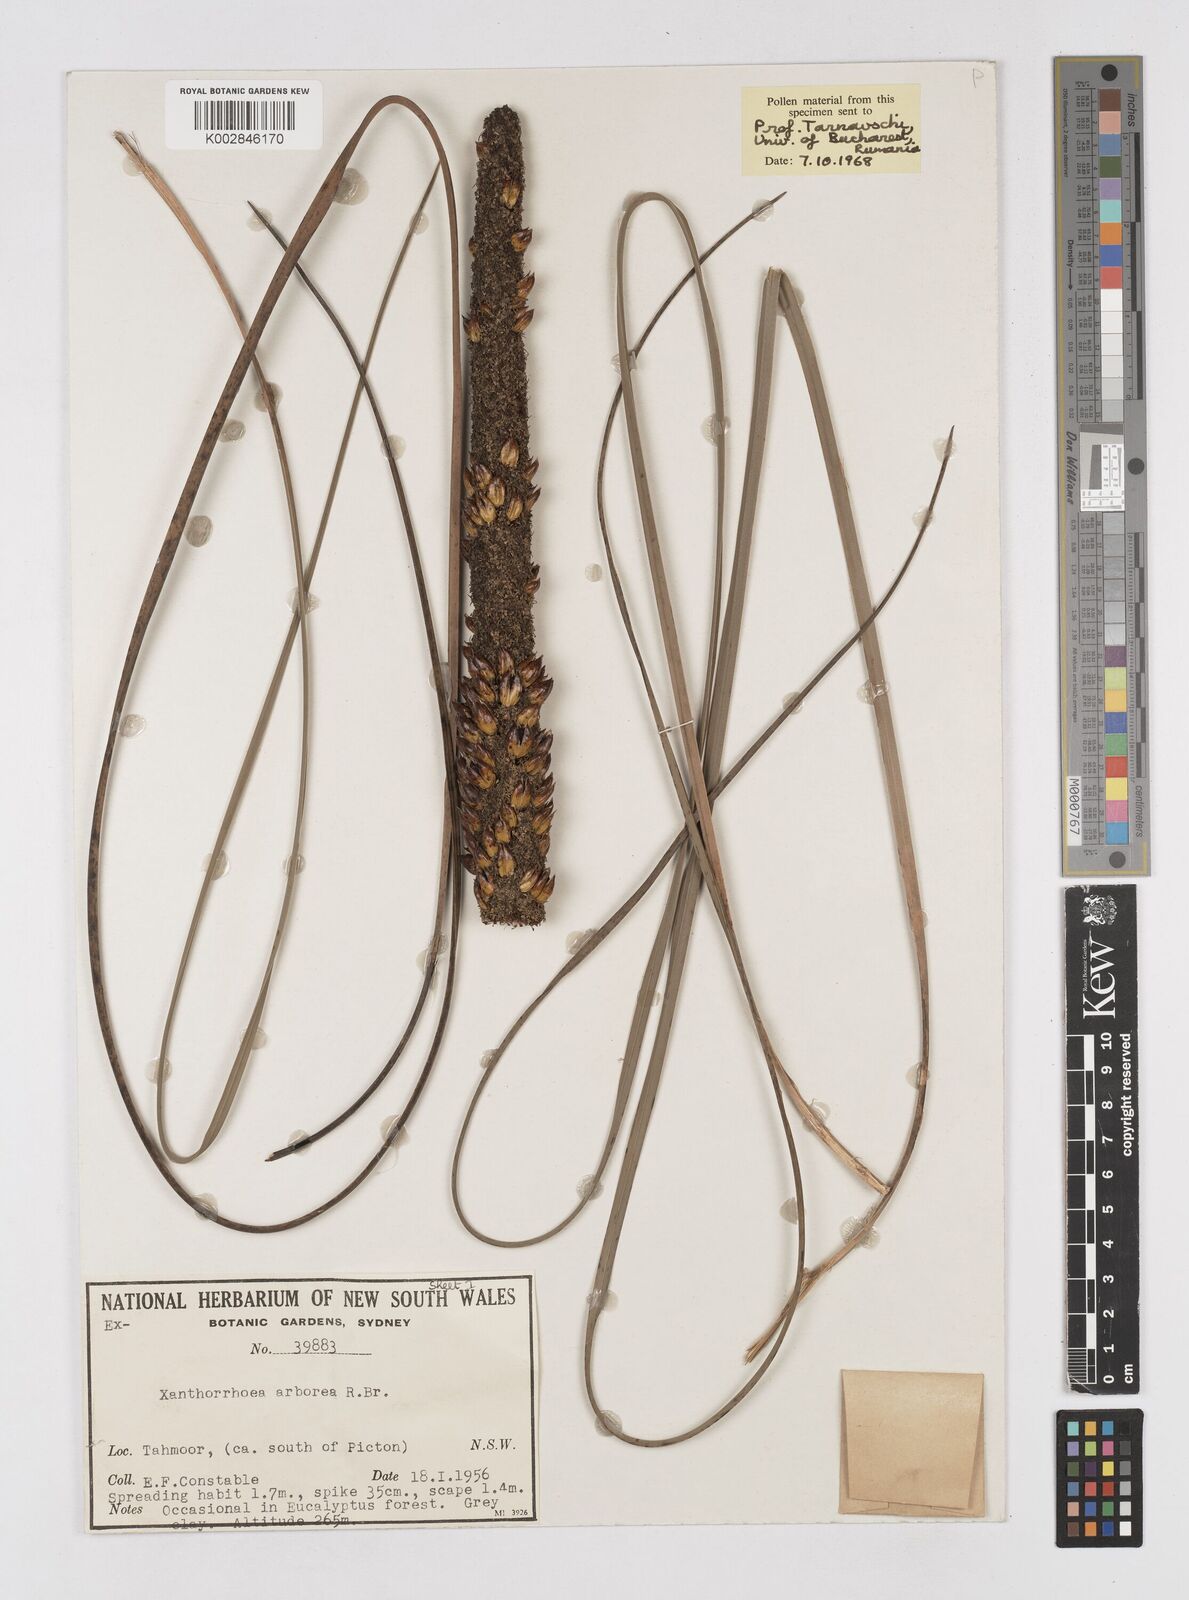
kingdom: Plantae
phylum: Tracheophyta
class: Liliopsida
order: Asparagales
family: Asphodelaceae
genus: Xanthorrhoea
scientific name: Xanthorrhoea arborea
